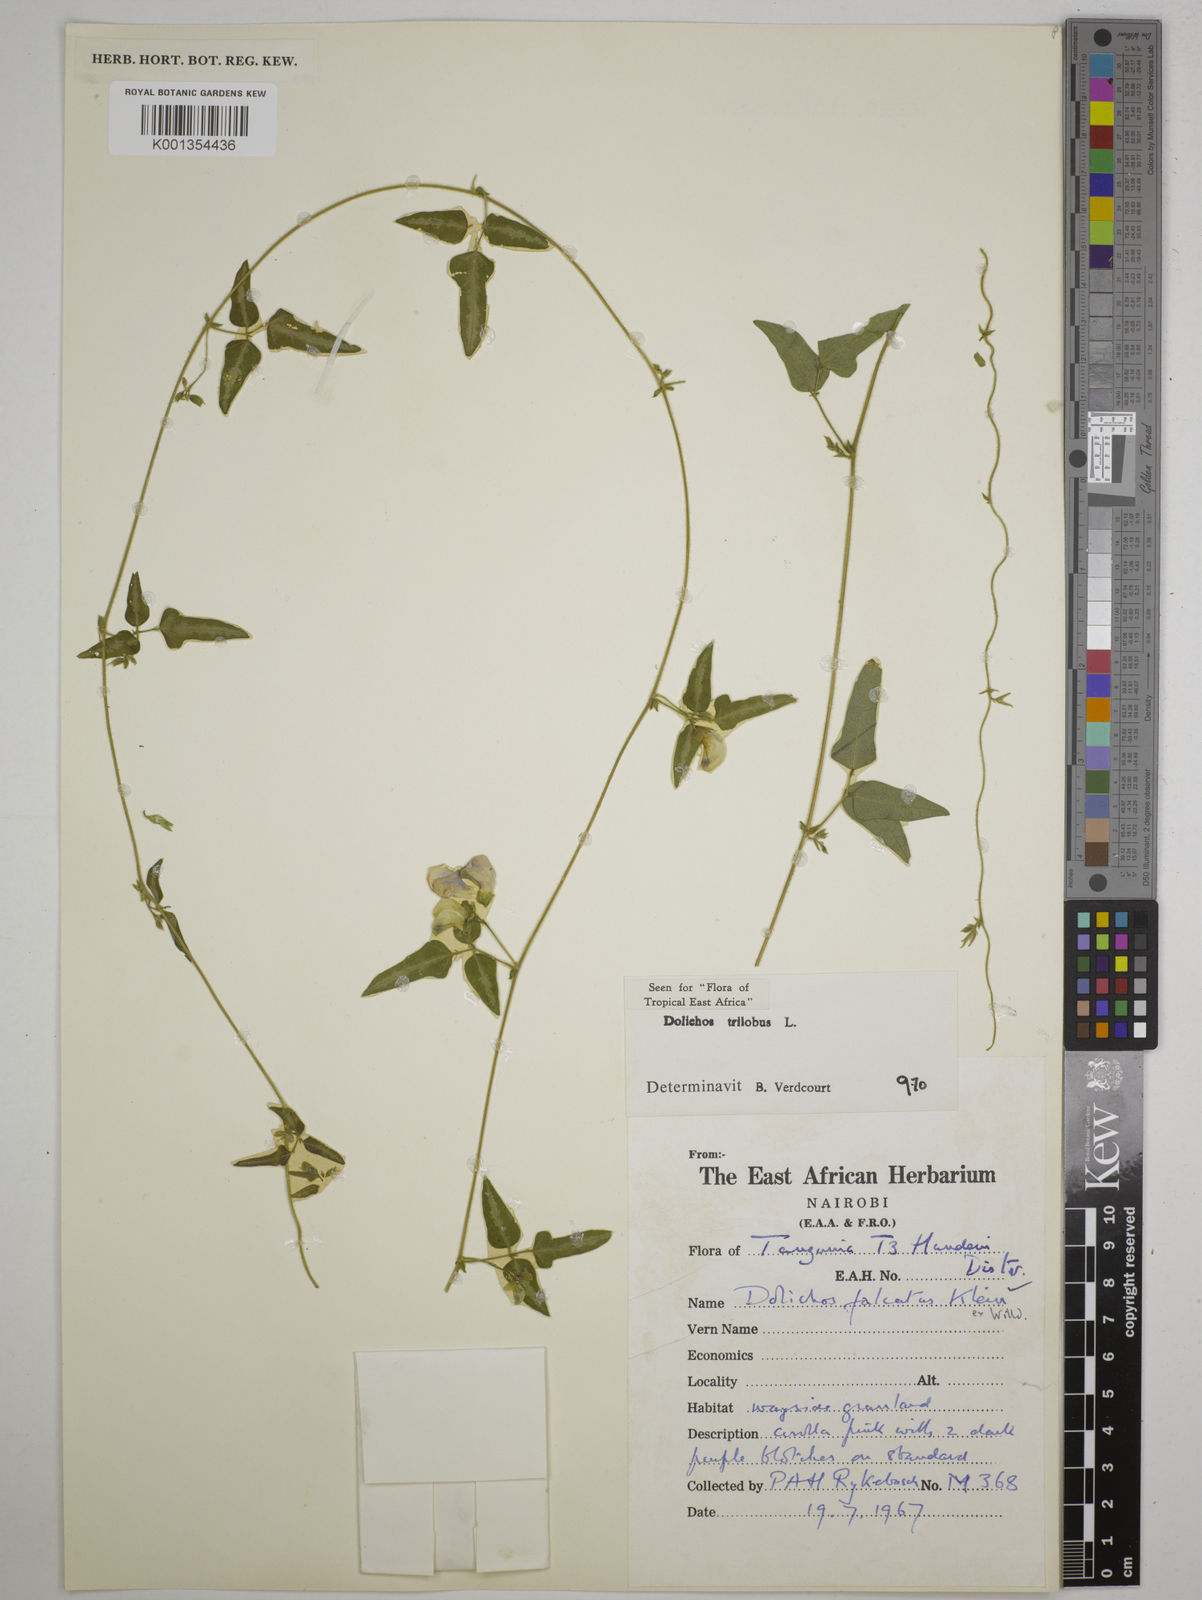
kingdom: Plantae
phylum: Tracheophyta
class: Magnoliopsida
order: Fabales
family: Fabaceae
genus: Dolichos
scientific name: Dolichos
